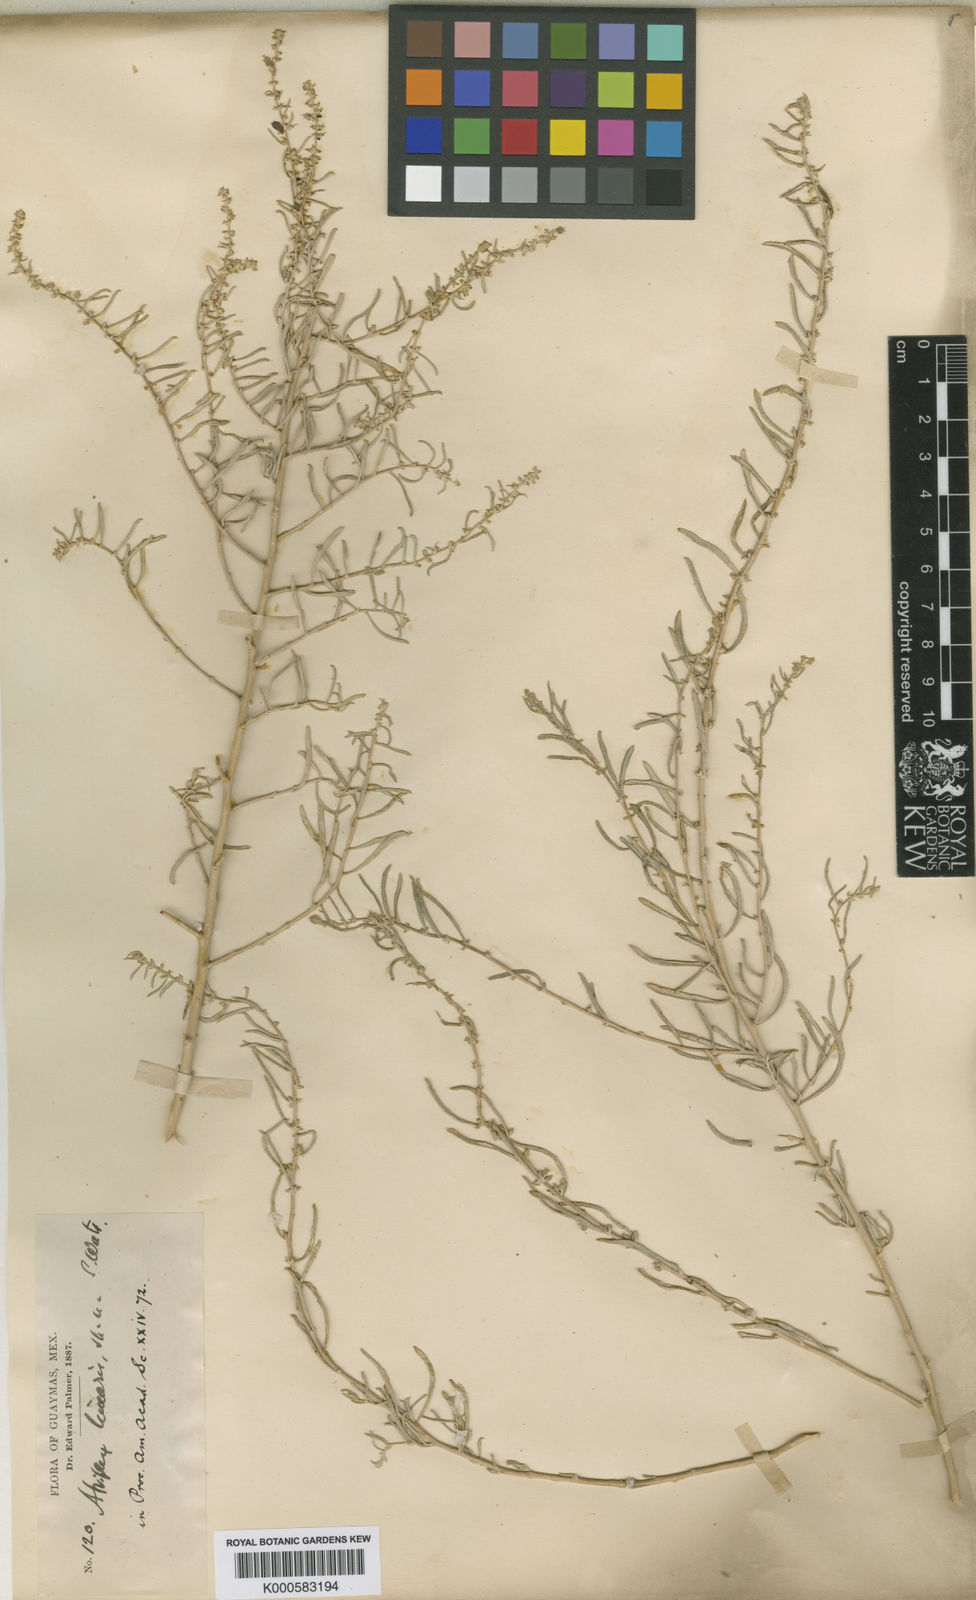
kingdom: Plantae
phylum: Tracheophyta
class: Magnoliopsida
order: Caryophyllales
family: Amaranthaceae
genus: Atriplex
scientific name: Atriplex linearis
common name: Slender-leaf saltbush
